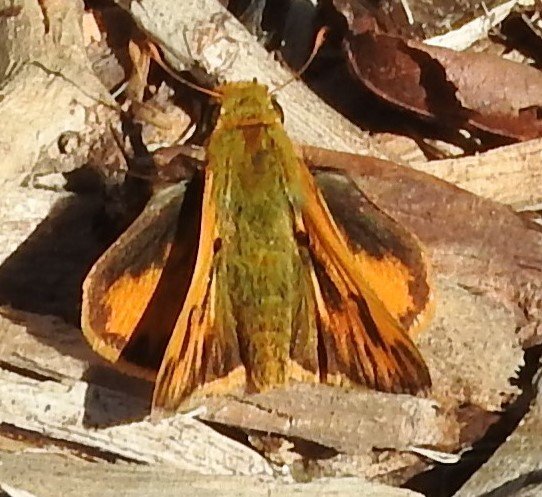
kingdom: Animalia
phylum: Arthropoda
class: Insecta
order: Lepidoptera
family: Hesperiidae
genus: Hylephila
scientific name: Hylephila phyleus
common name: Fiery Skipper
